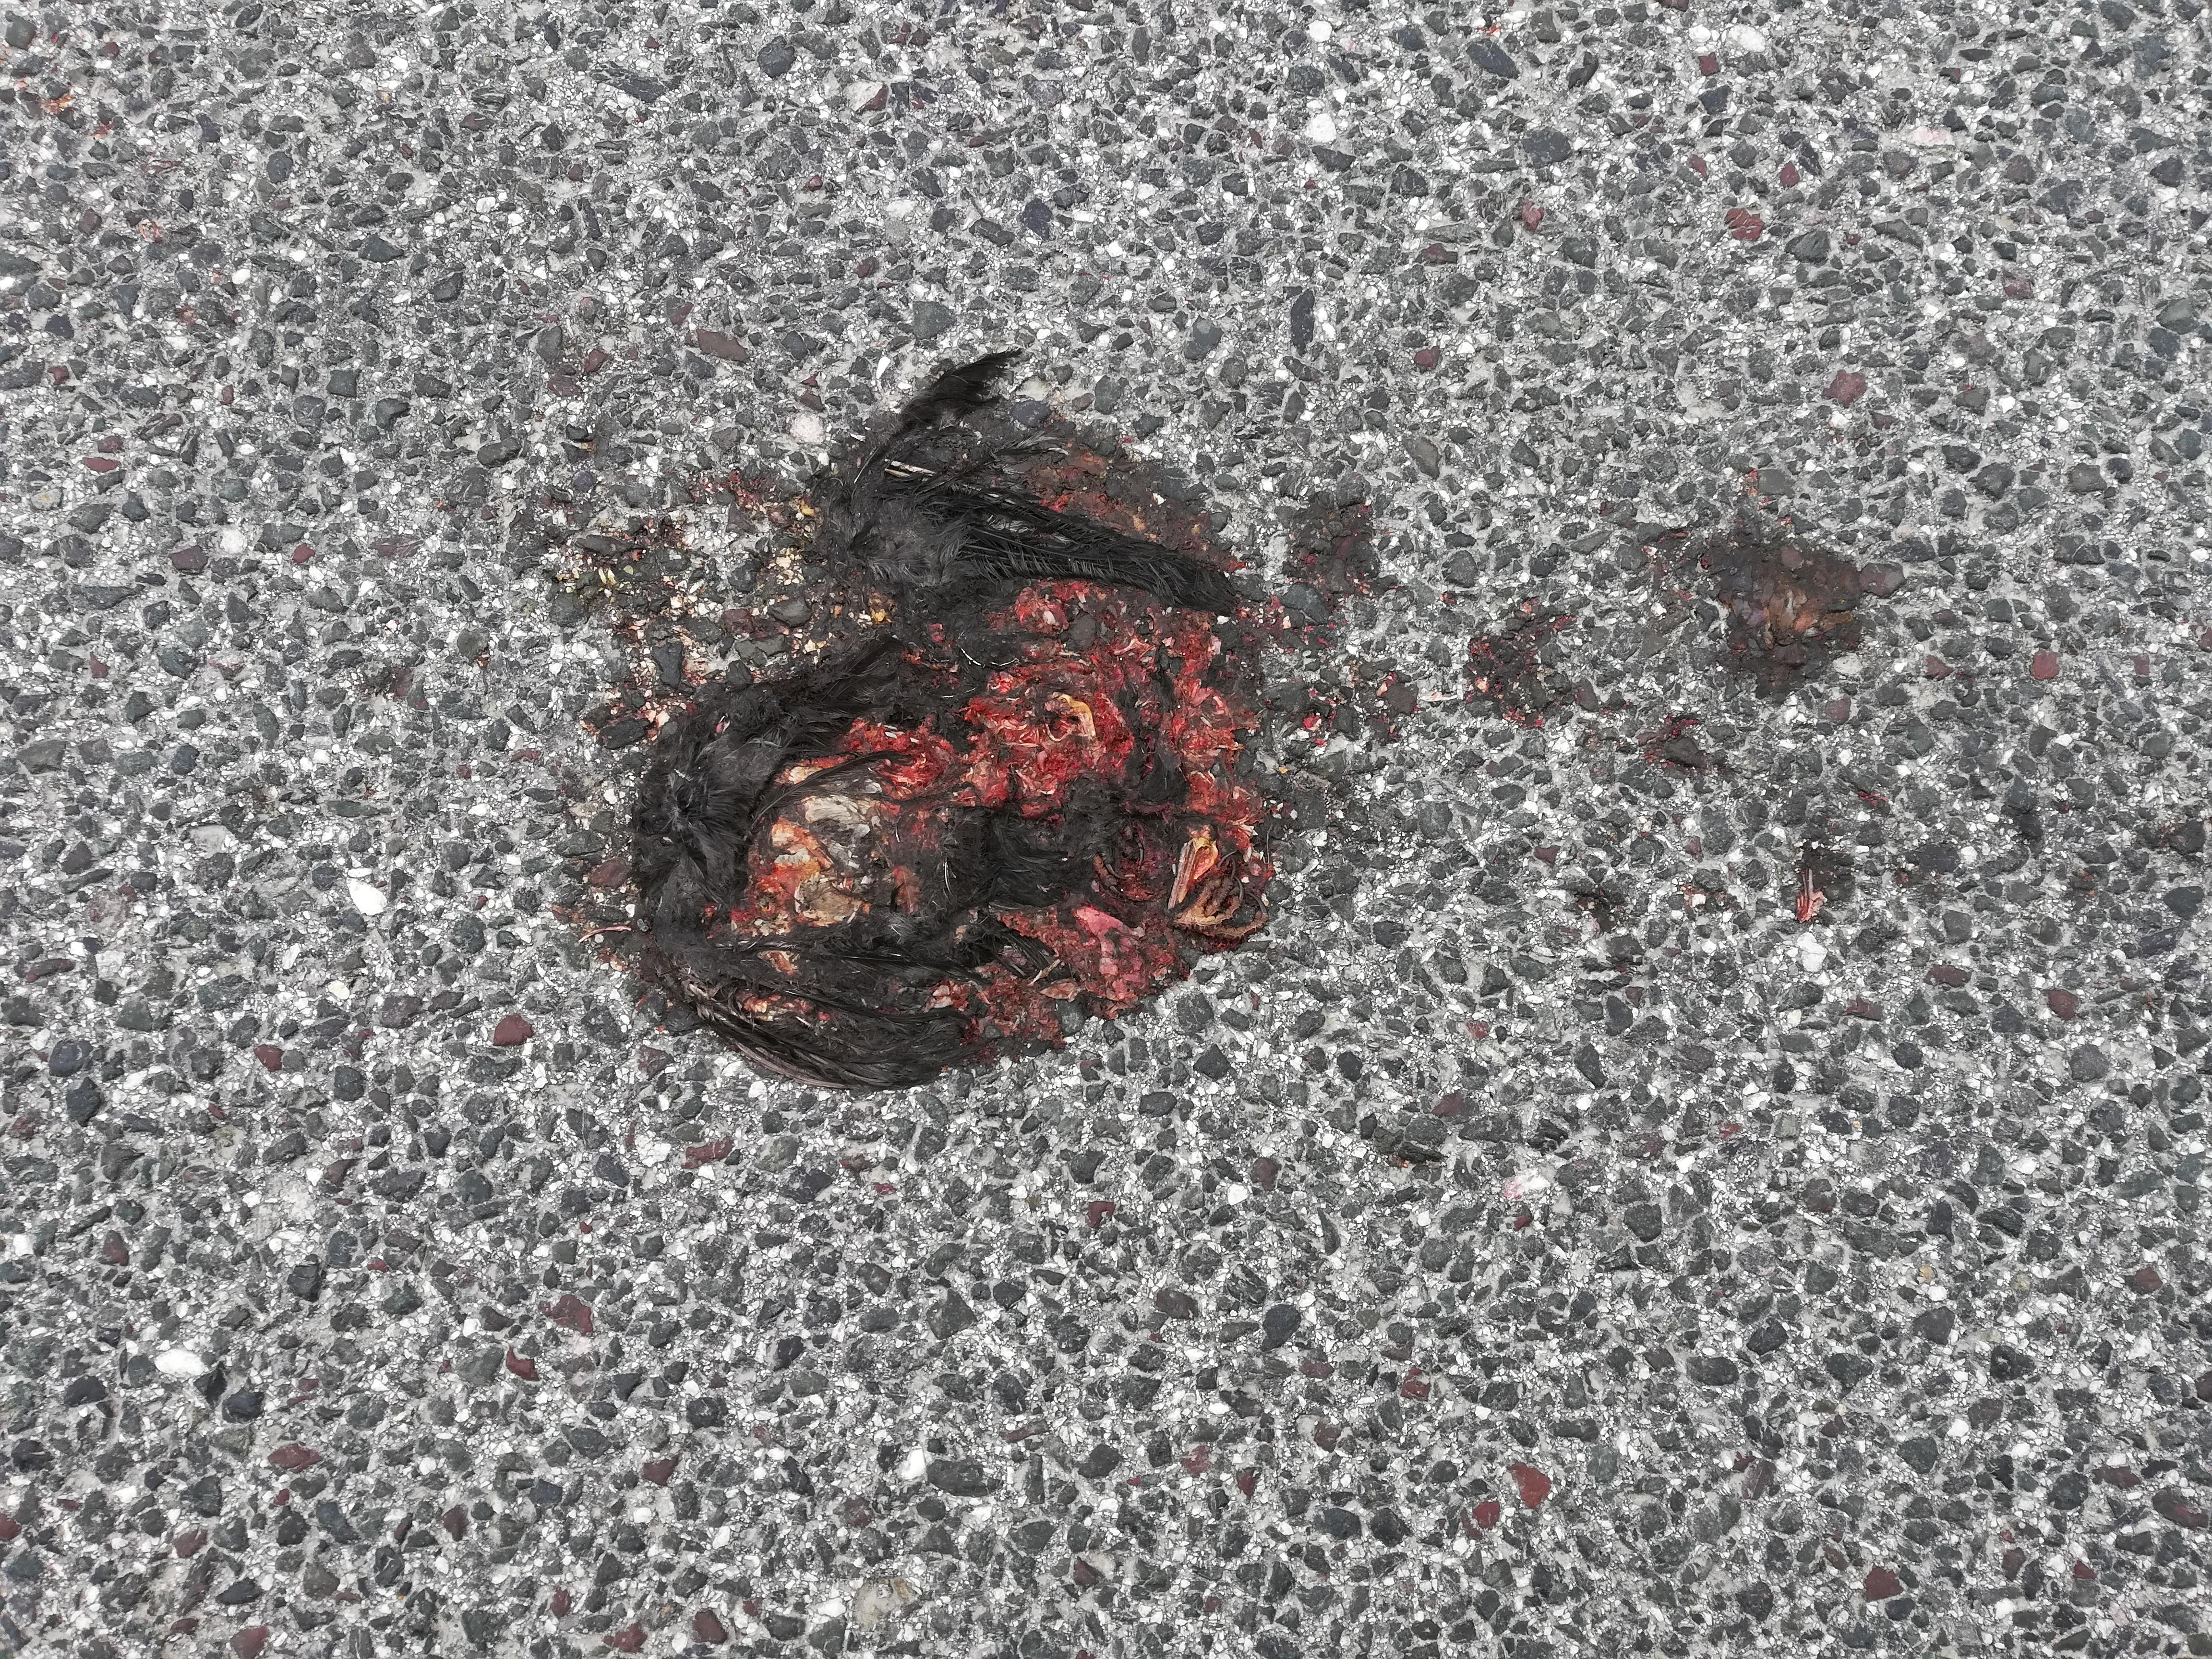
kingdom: Animalia
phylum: Chordata
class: Aves
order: Passeriformes
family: Turdidae
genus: Turdus
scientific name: Turdus merula
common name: Common blackbird
